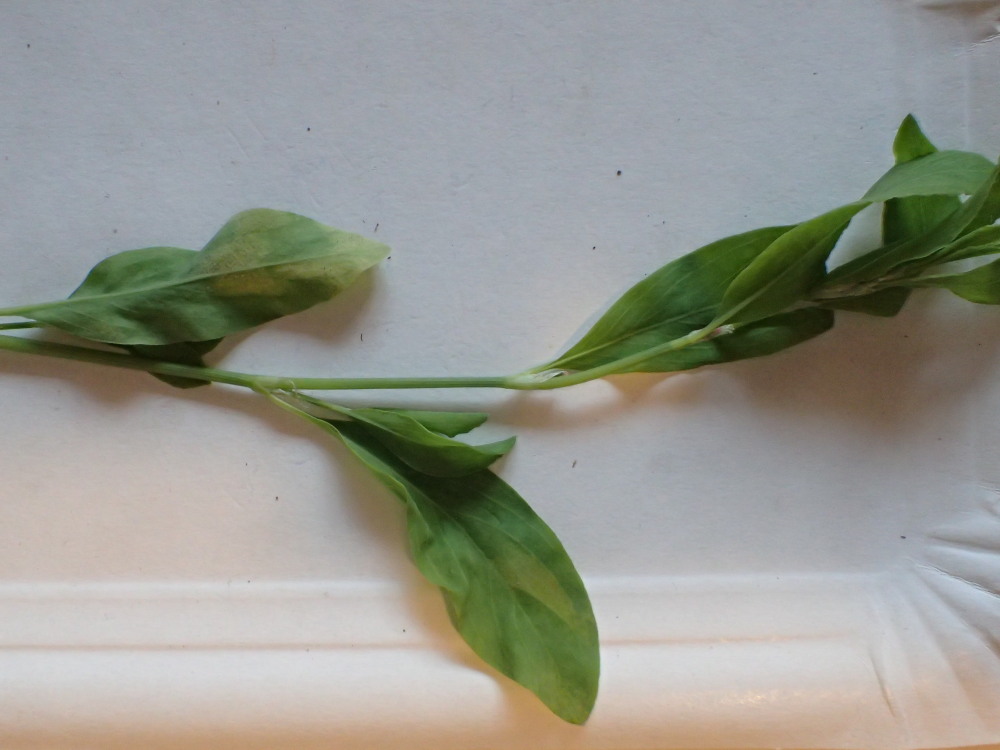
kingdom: Chromista
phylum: Oomycota
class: Peronosporea
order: Peronosporales
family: Peronosporaceae
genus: Peronospora
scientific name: Peronospora polygoni
